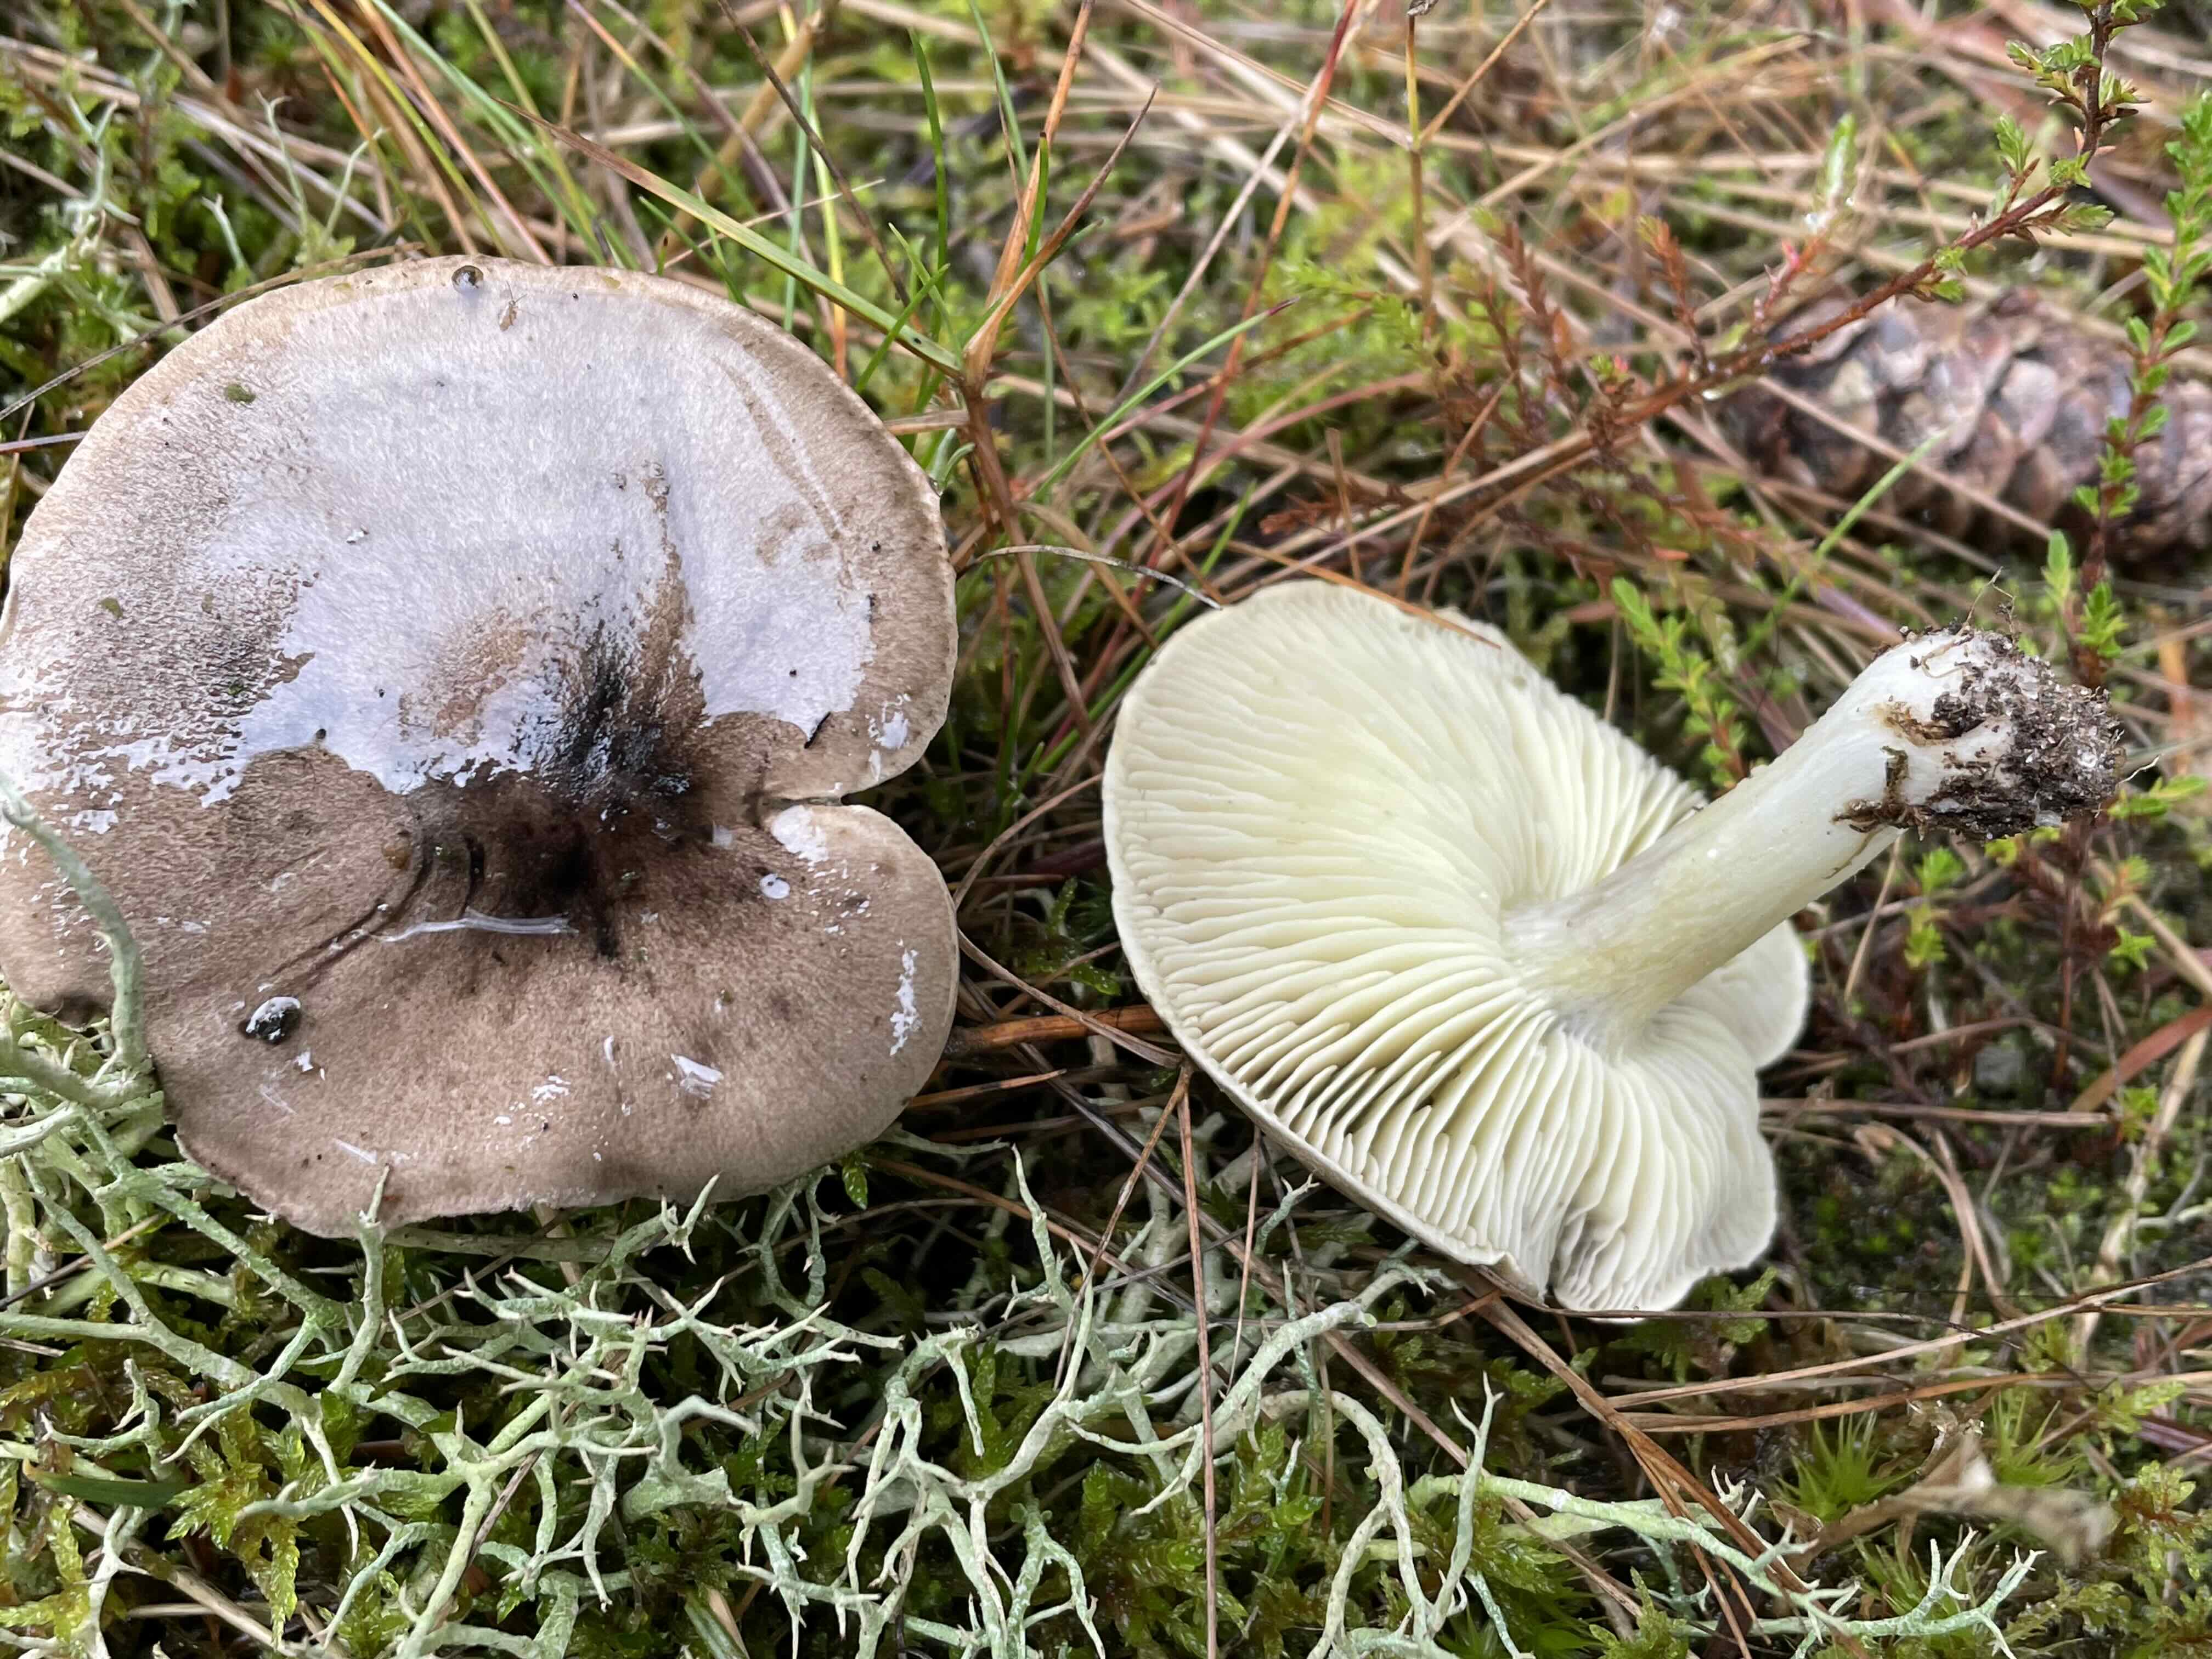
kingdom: Fungi
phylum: Basidiomycota
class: Agaricomycetes
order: Agaricales
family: Tricholomataceae
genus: Tricholoma
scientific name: Tricholoma portentosum
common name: grå ridderhat
